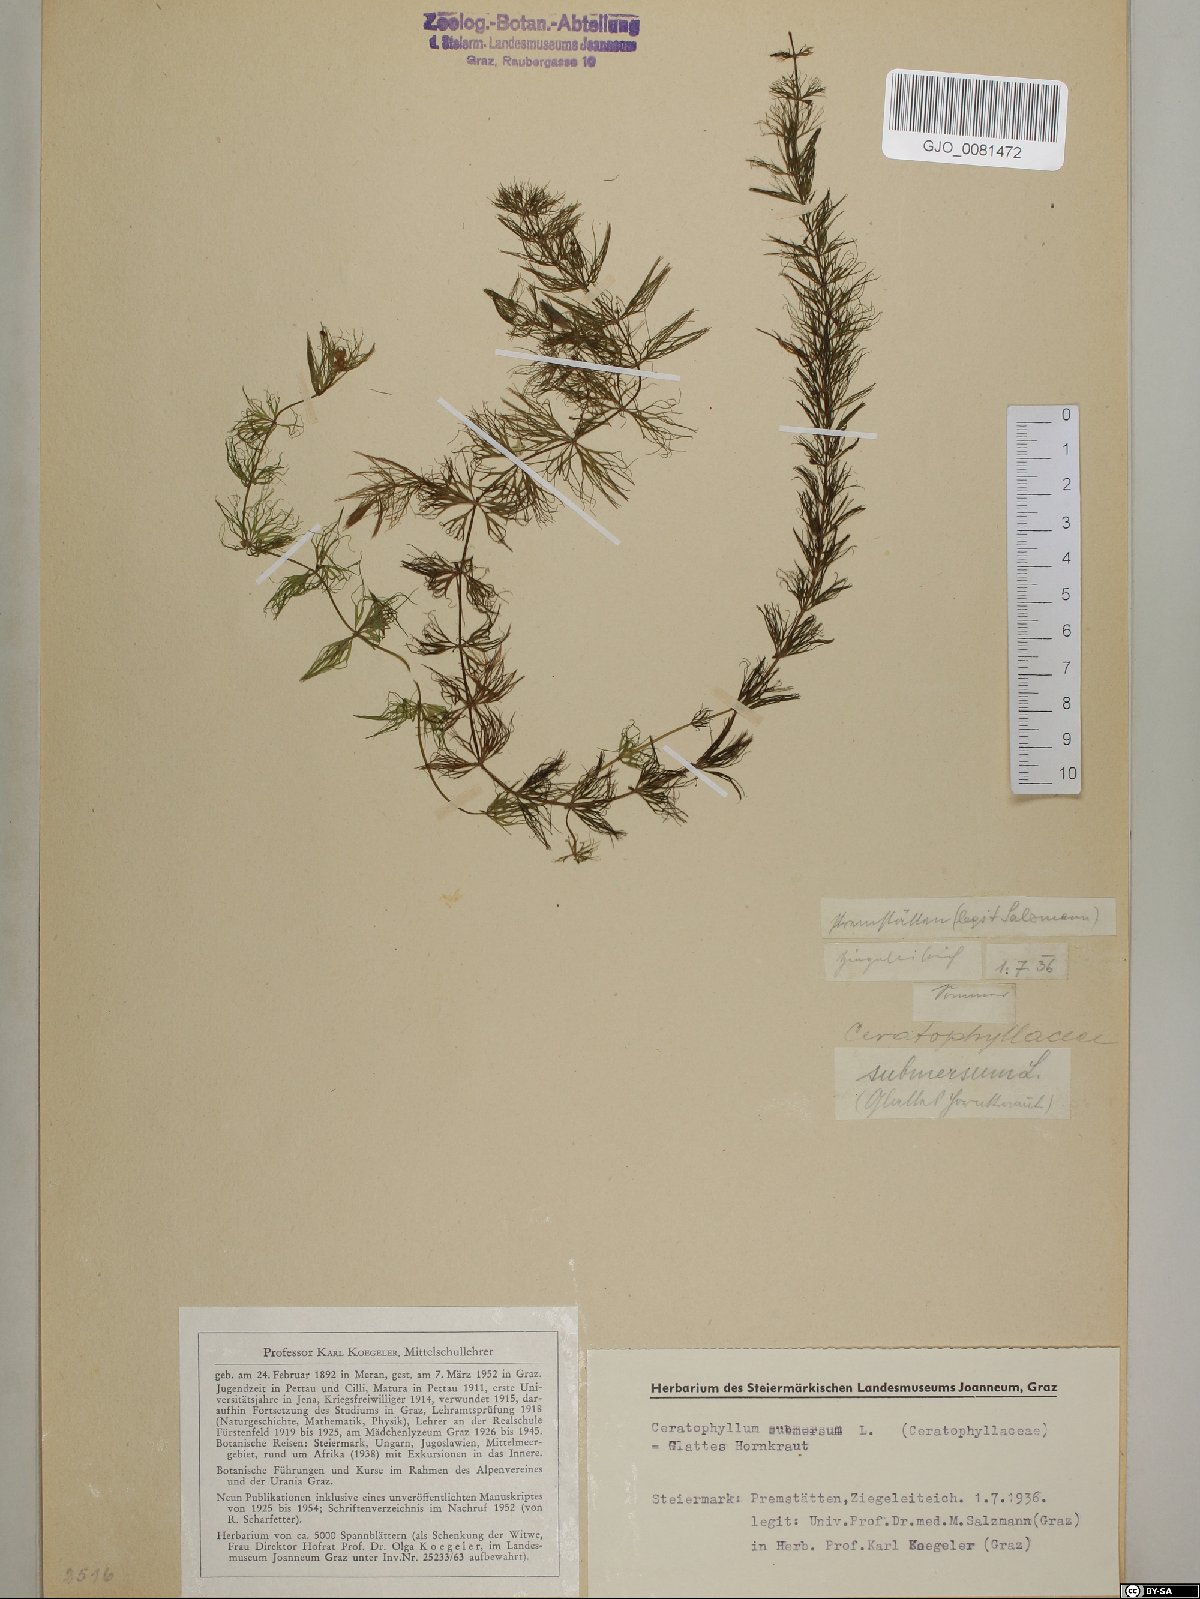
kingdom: Plantae
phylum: Tracheophyta
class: Magnoliopsida
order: Ceratophyllales
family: Ceratophyllaceae
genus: Ceratophyllum
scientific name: Ceratophyllum submersum
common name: Soft hornwort
